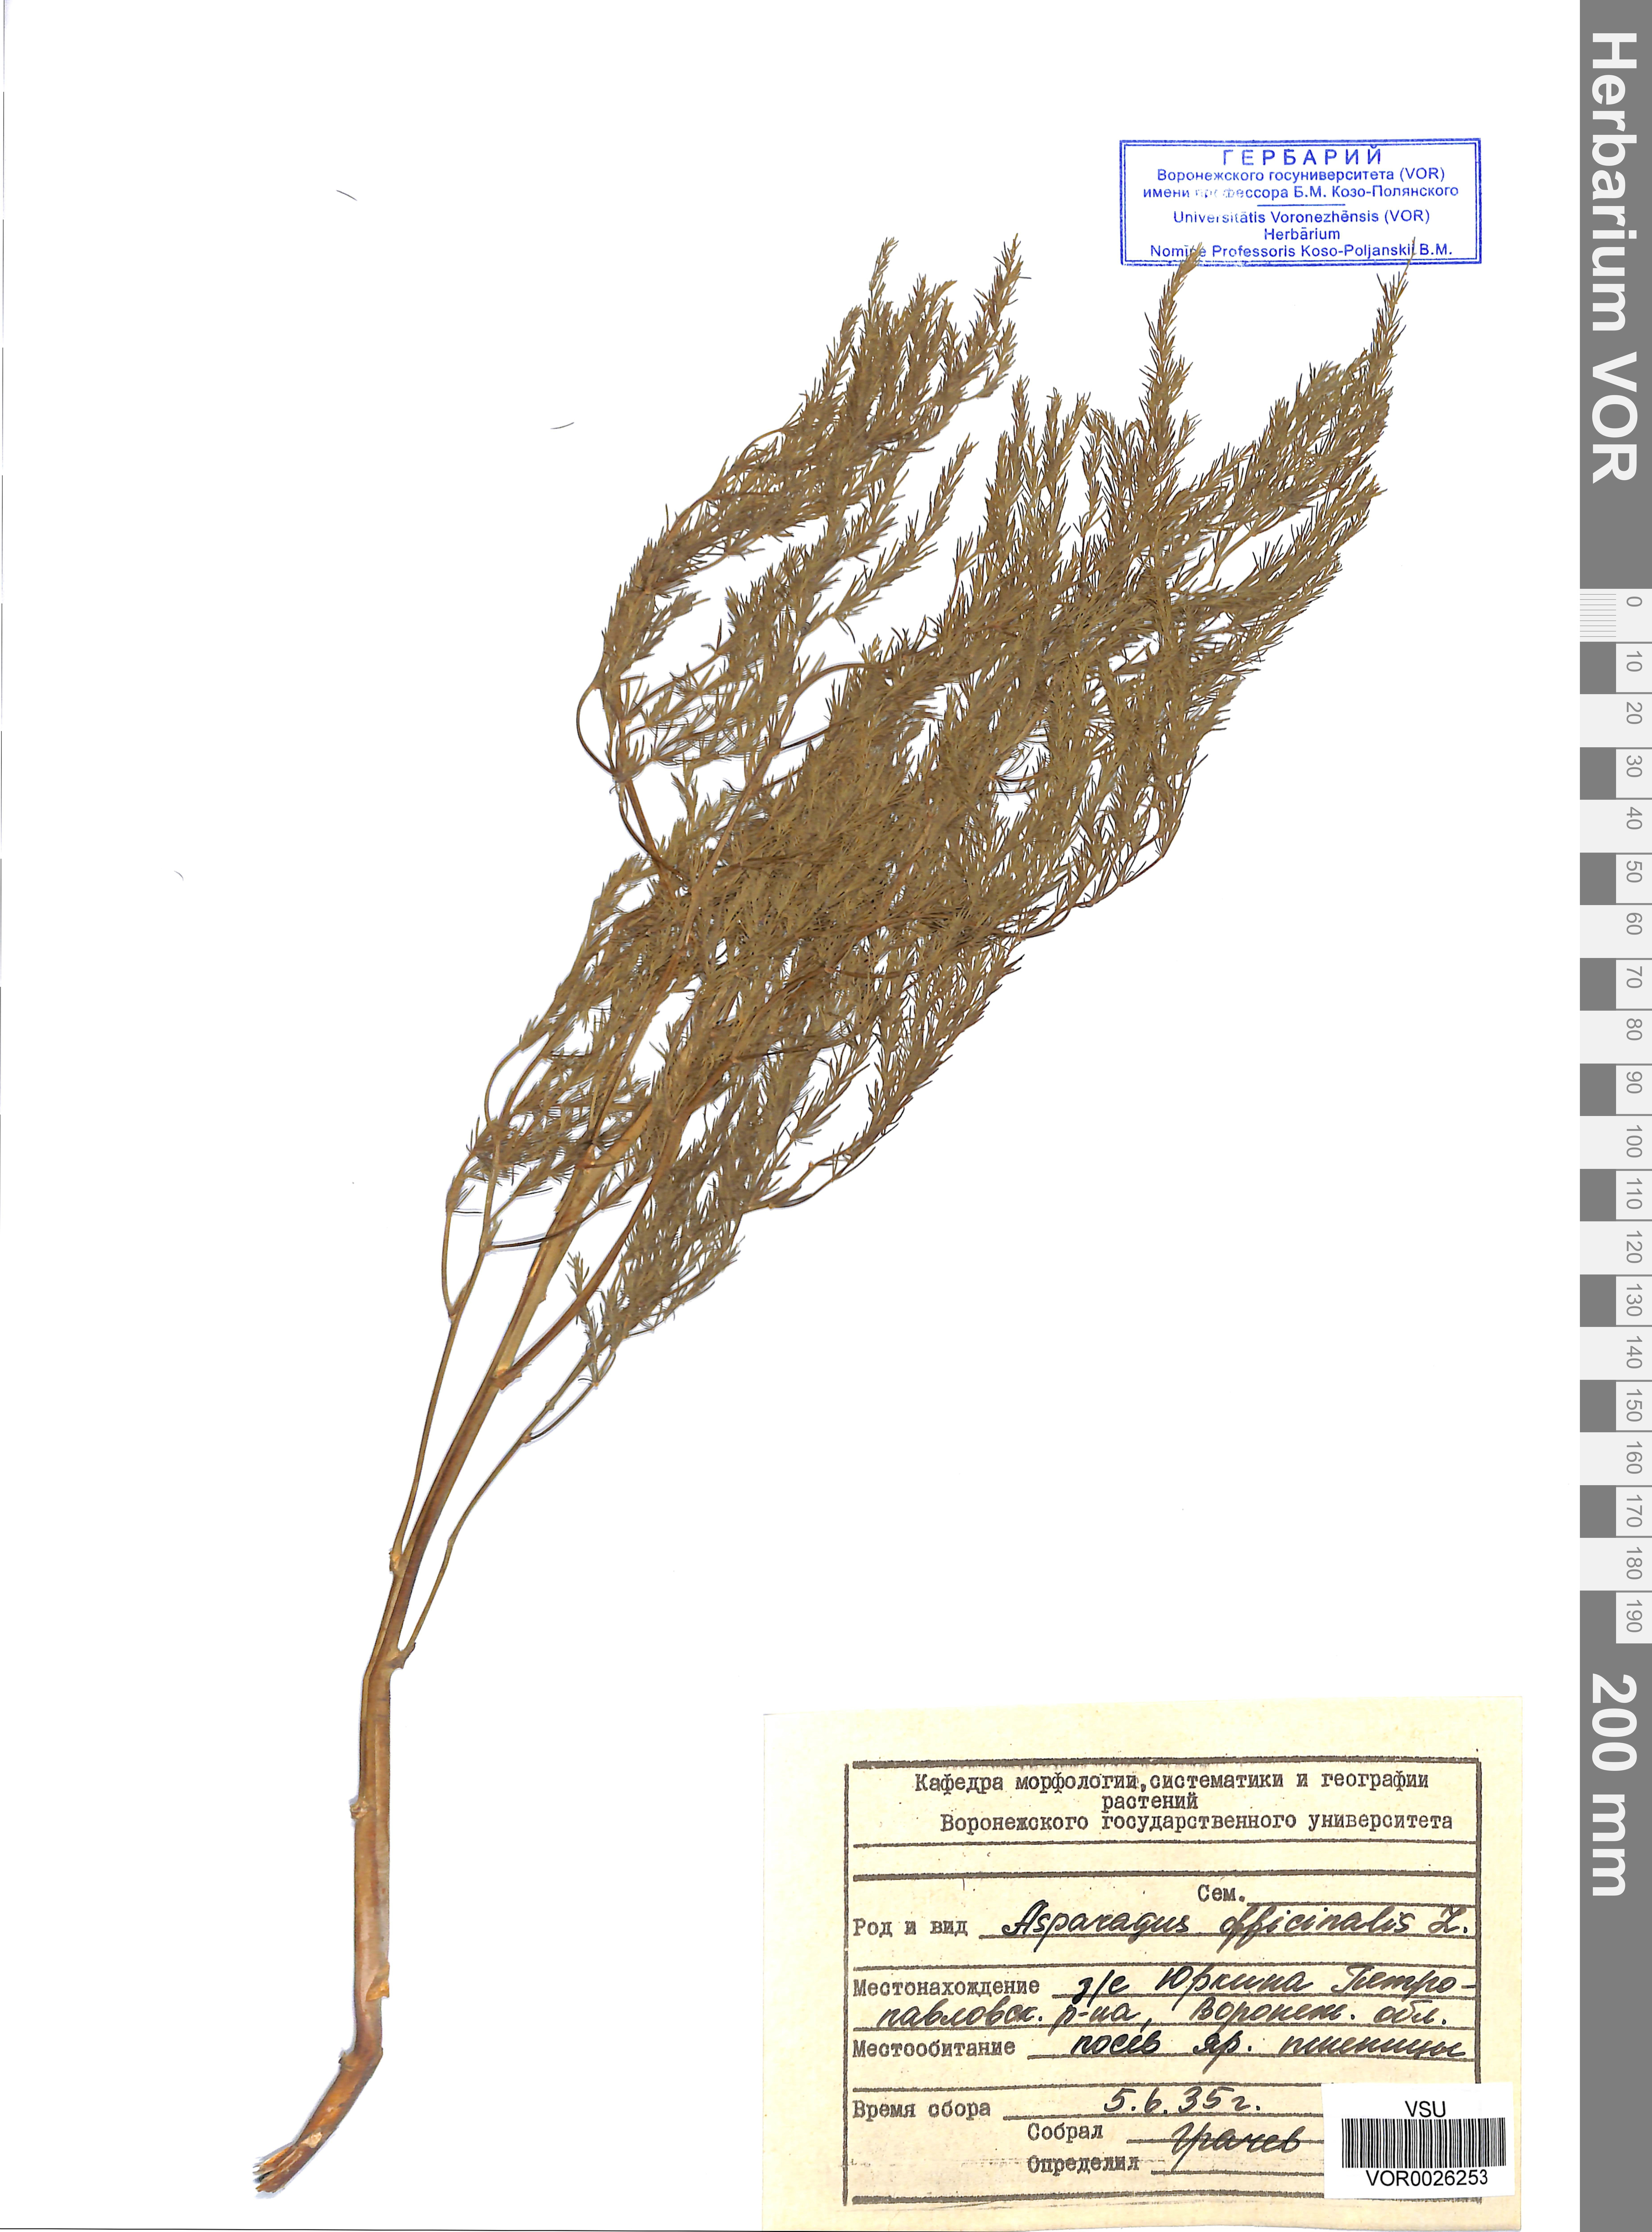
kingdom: Plantae
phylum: Tracheophyta
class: Liliopsida
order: Asparagales
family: Asparagaceae
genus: Asparagus
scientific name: Asparagus officinalis
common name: Garden asparagus
